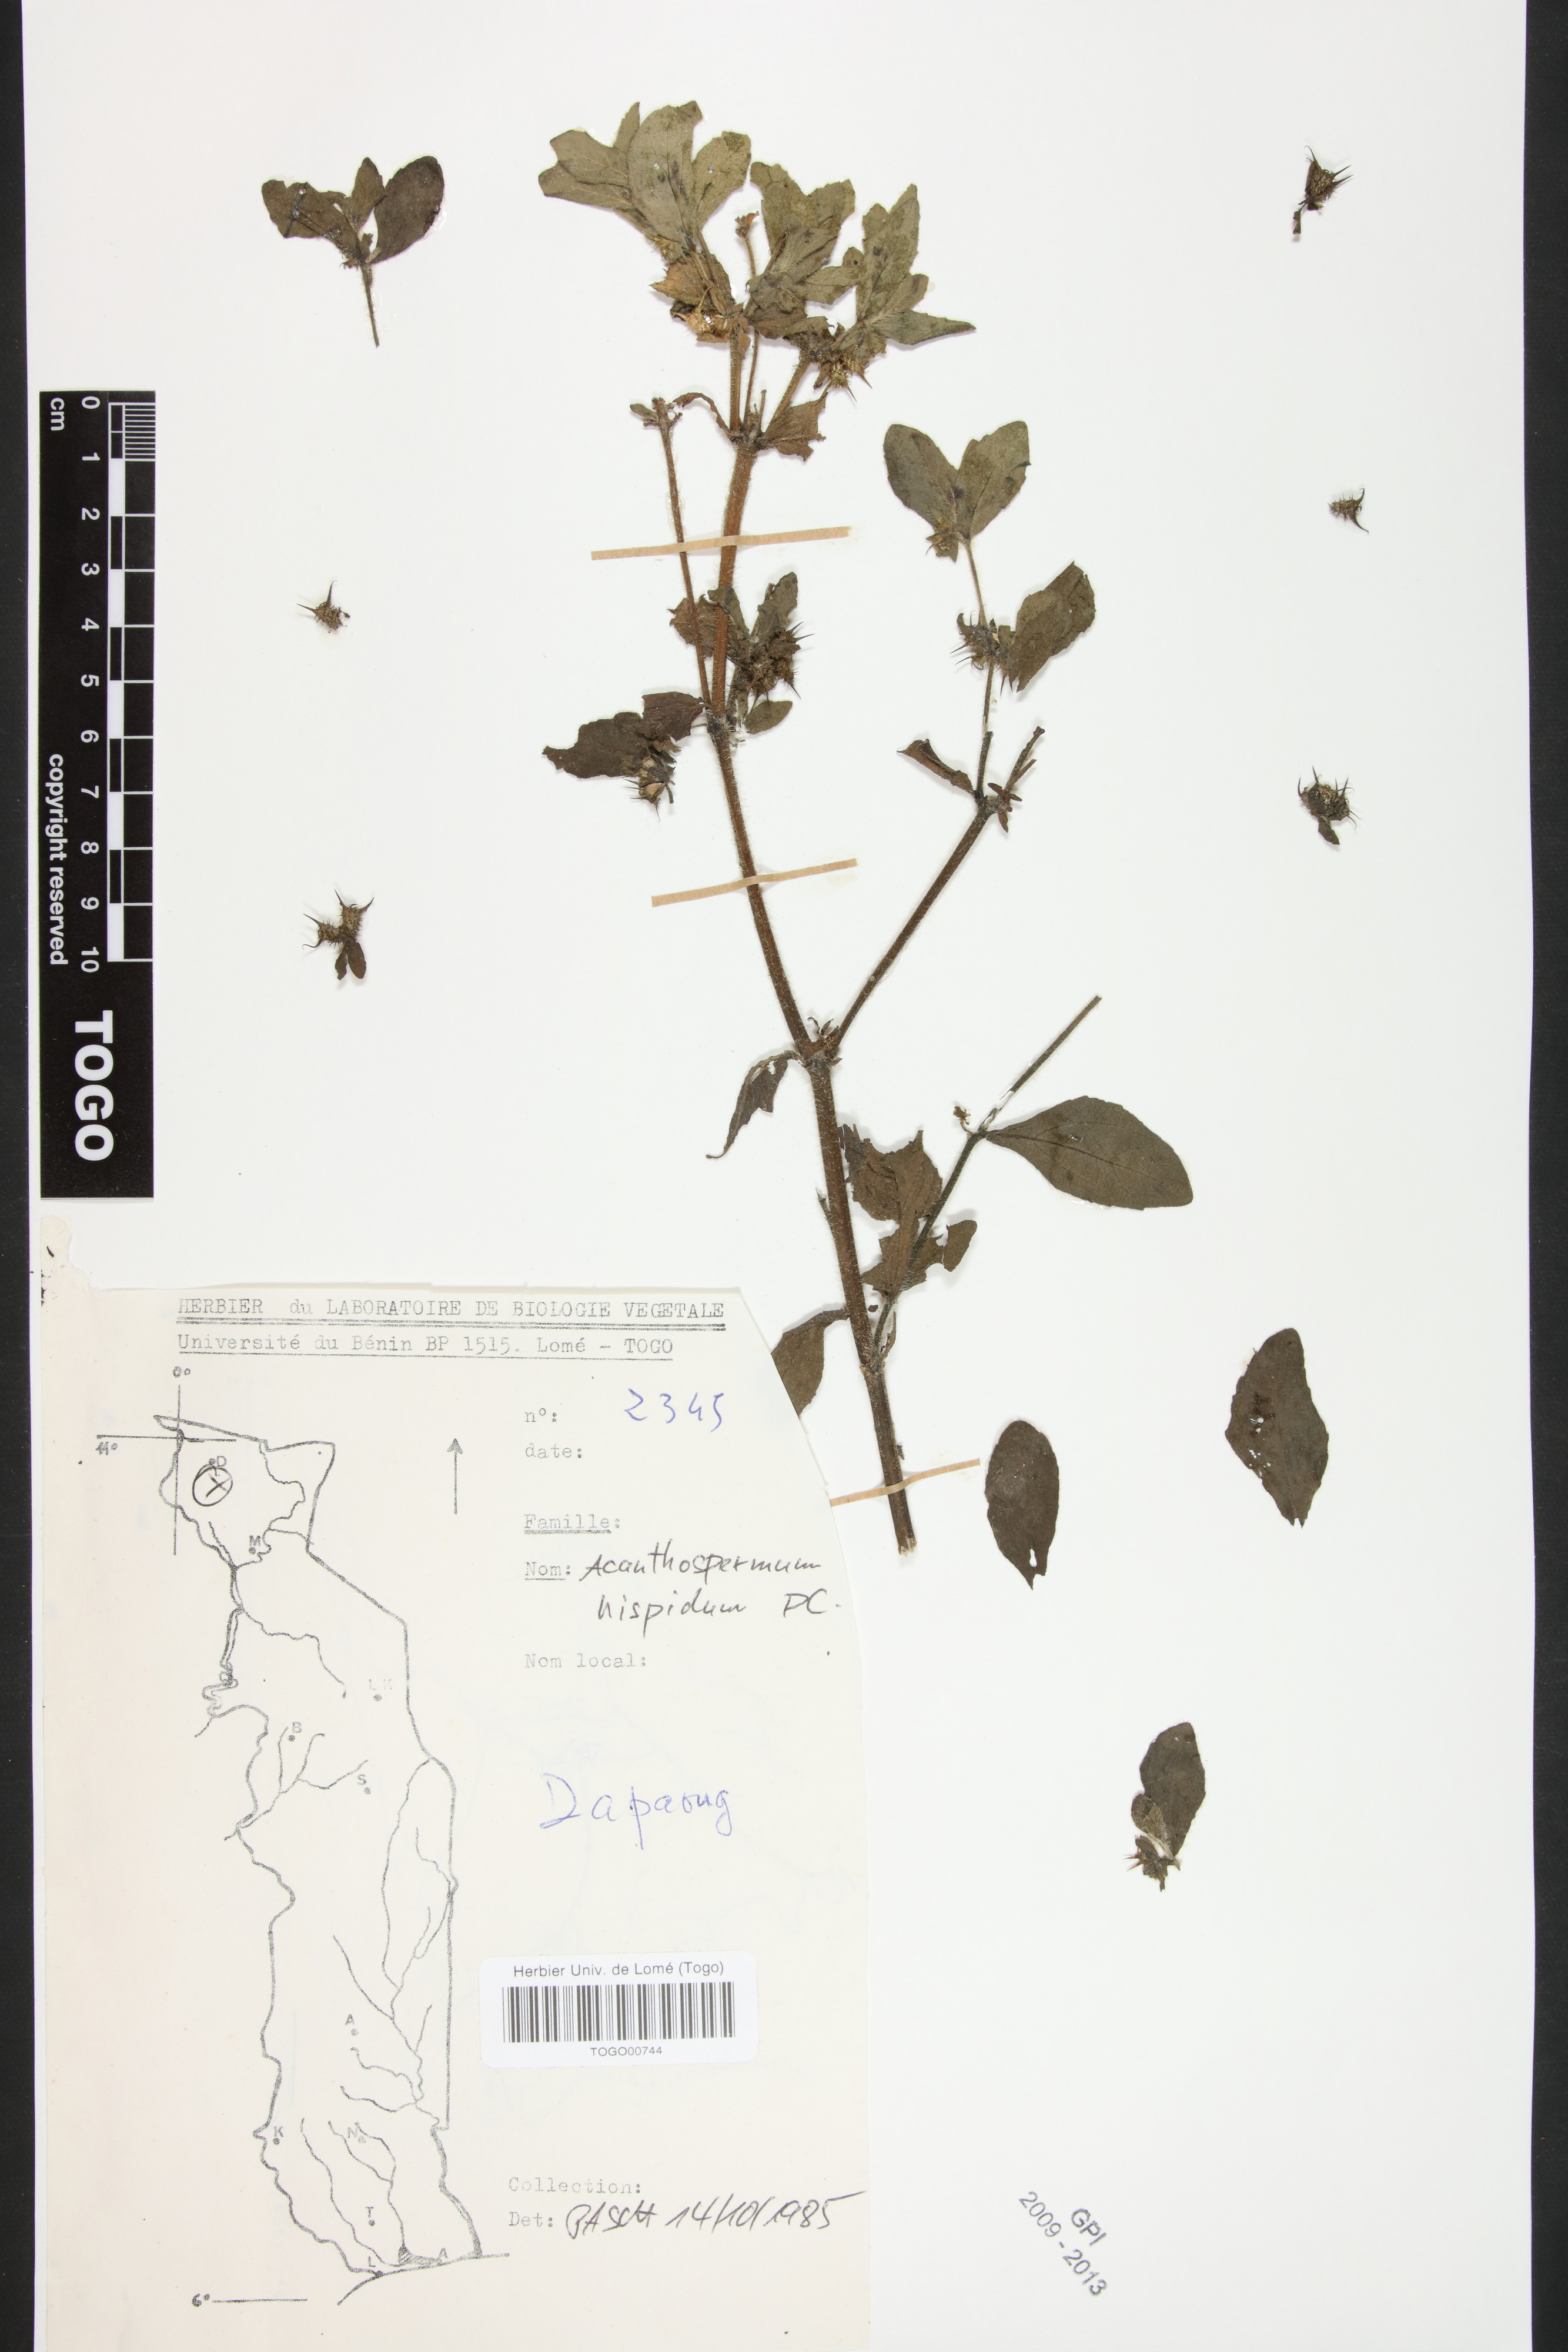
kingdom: Plantae
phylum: Tracheophyta
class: Magnoliopsida
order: Asterales
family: Asteraceae
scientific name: Asteraceae
